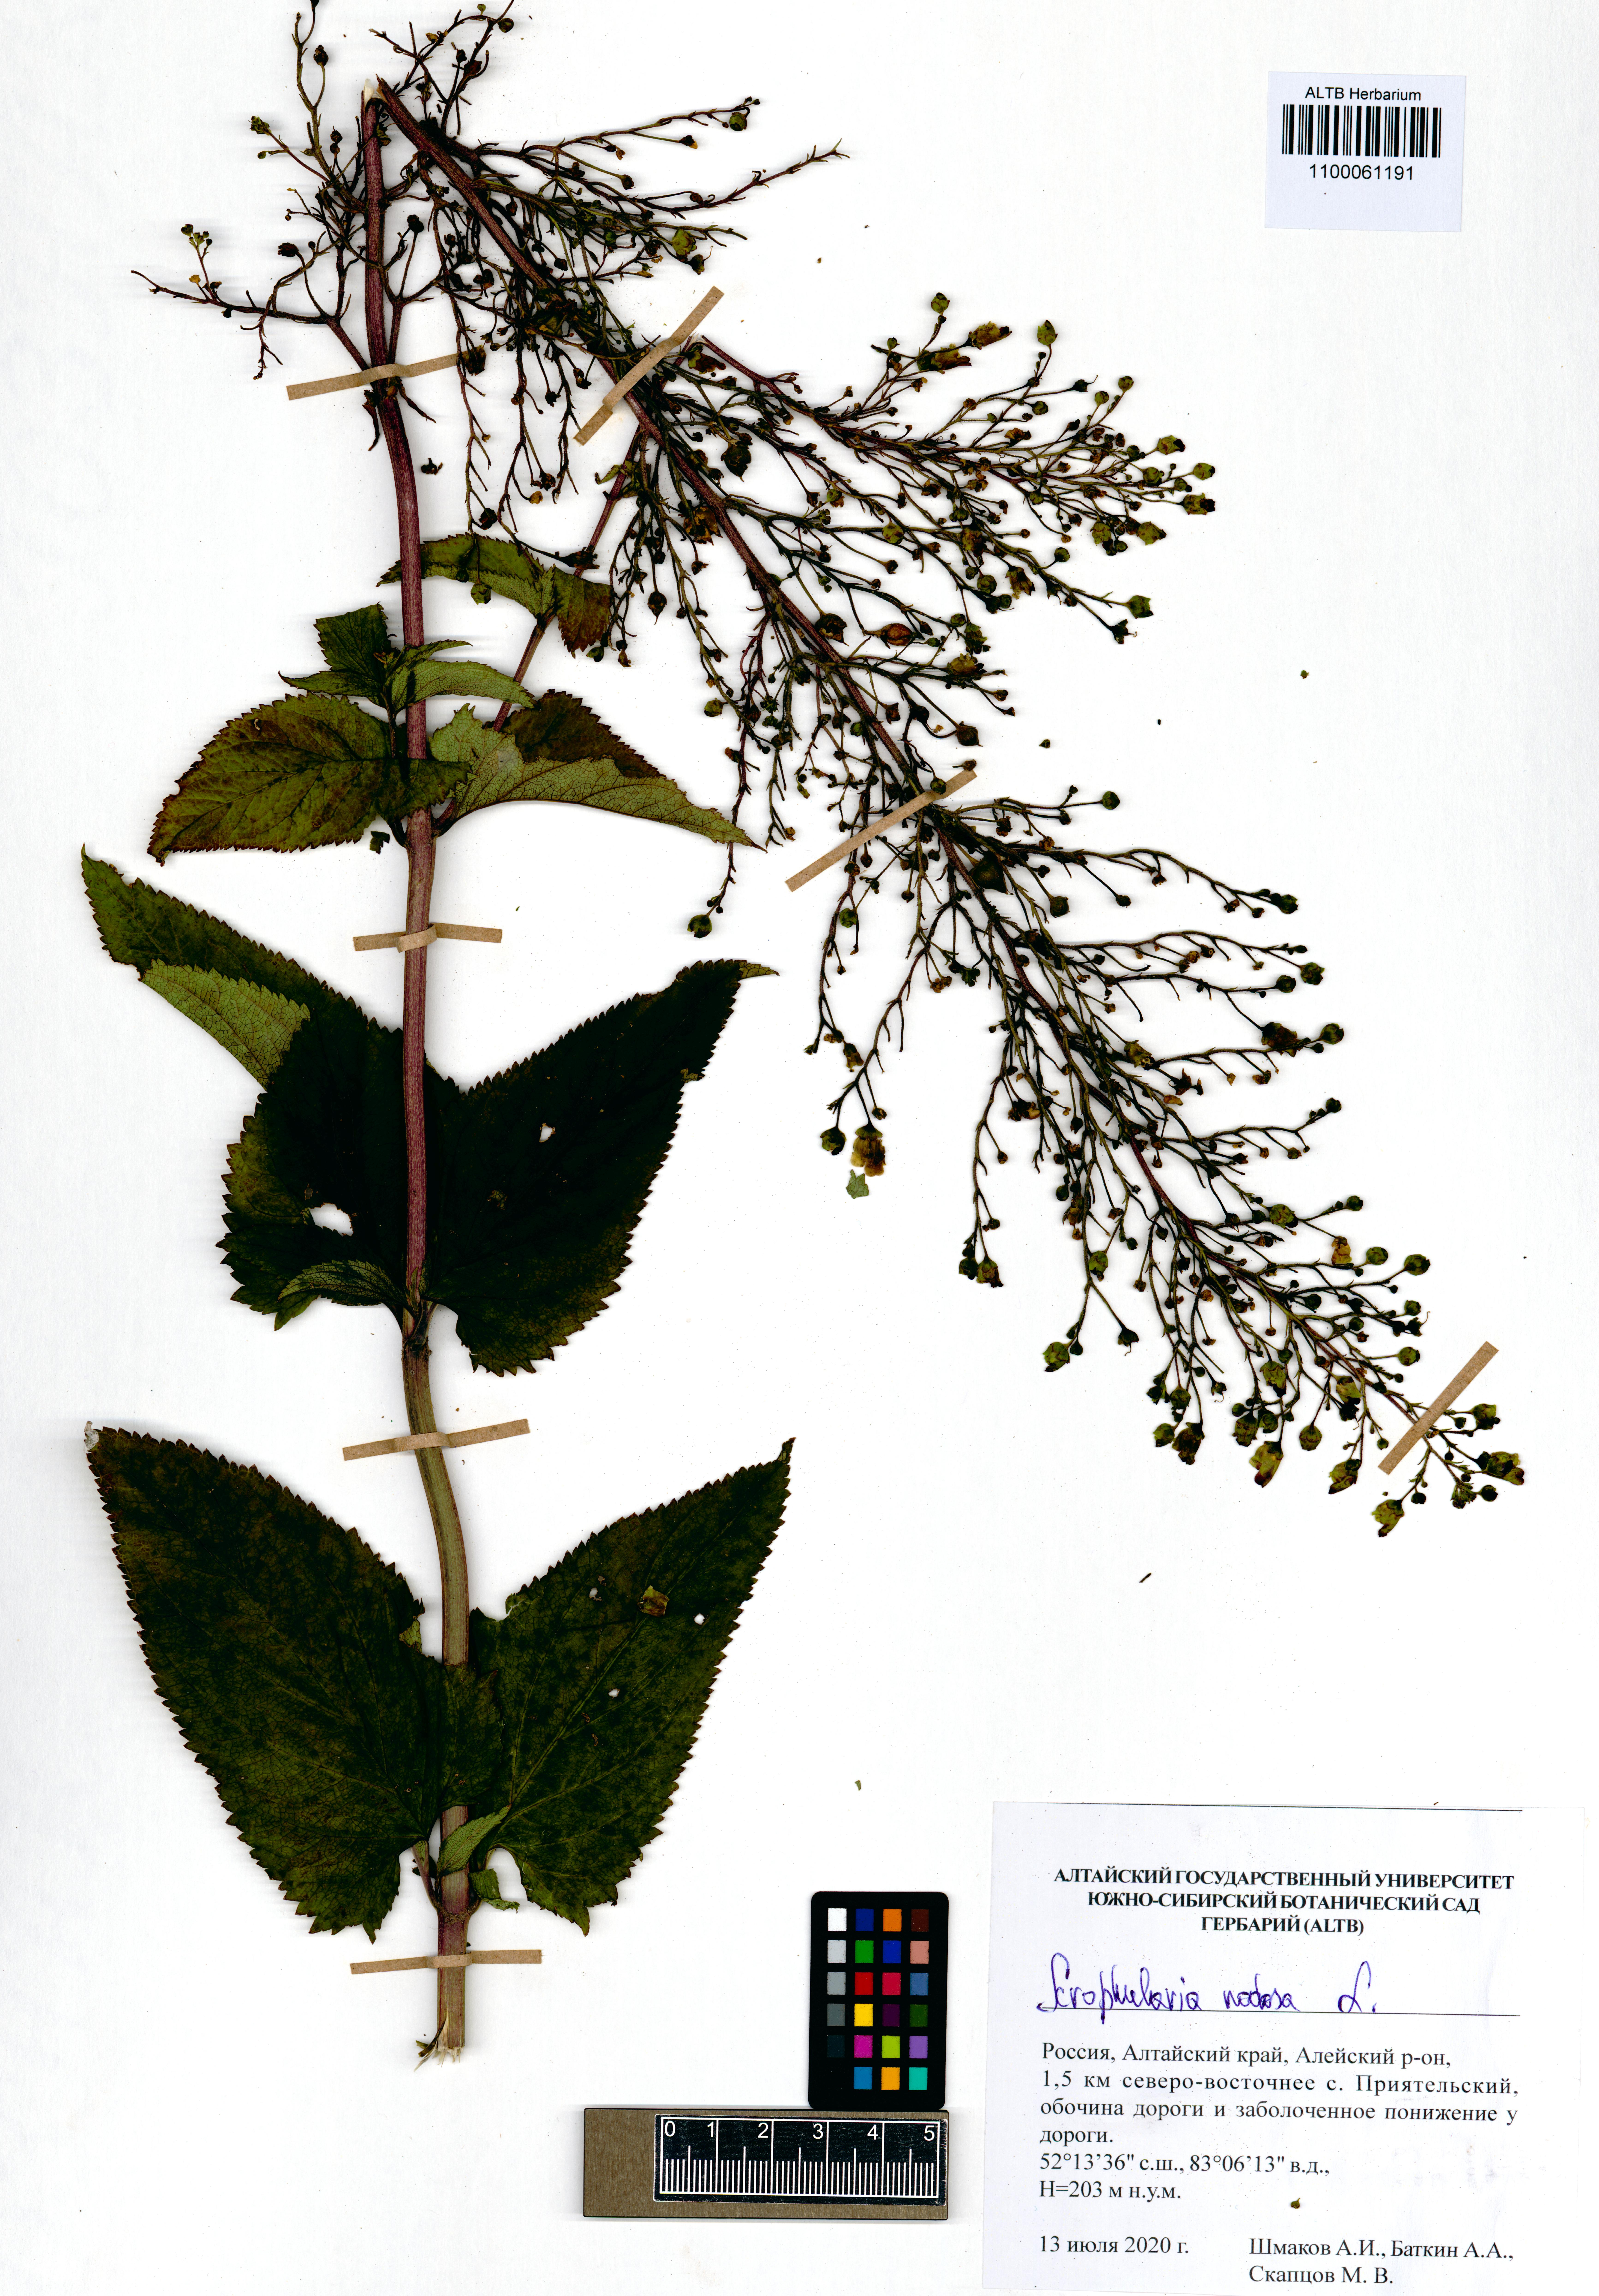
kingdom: Plantae
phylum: Tracheophyta
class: Magnoliopsida
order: Lamiales
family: Scrophulariaceae
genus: Scrophularia
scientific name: Scrophularia nodosa
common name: Common figwort
